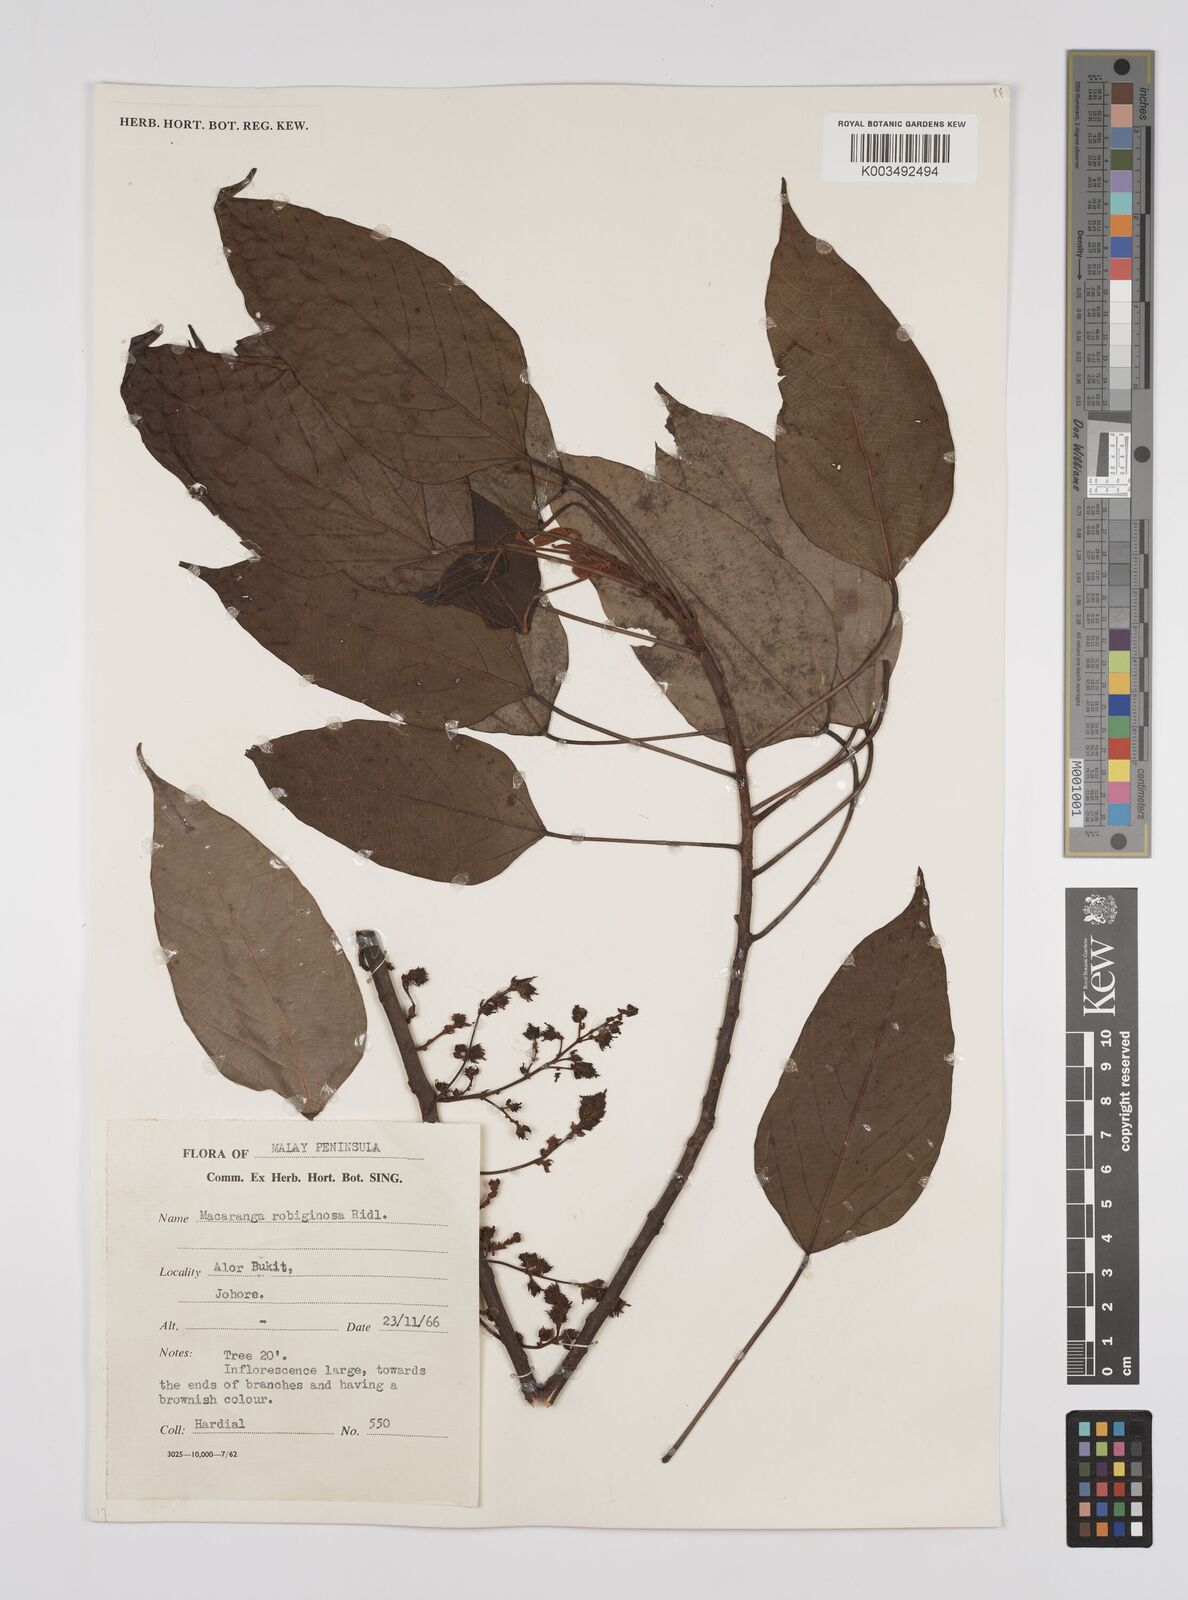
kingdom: Plantae
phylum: Tracheophyta
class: Magnoliopsida
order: Malpighiales
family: Euphorbiaceae
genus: Macaranga
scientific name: Macaranga heynei
